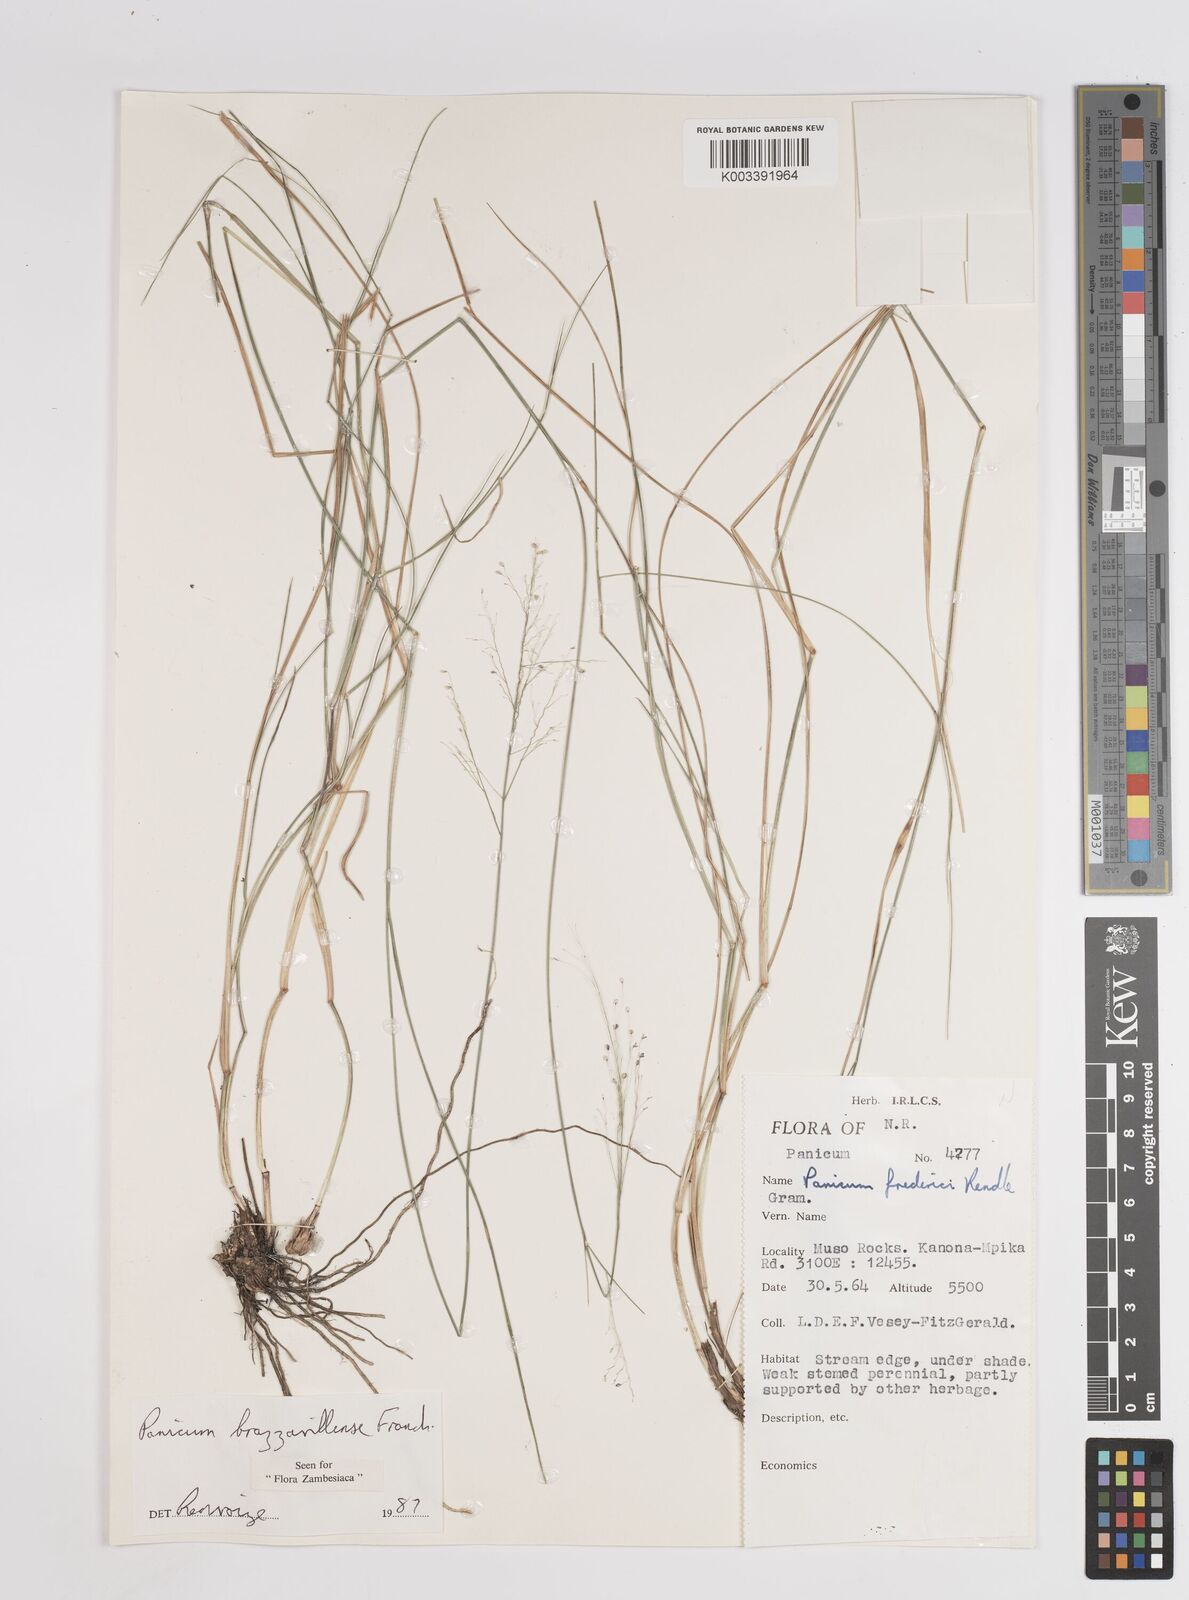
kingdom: Plantae
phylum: Tracheophyta
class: Liliopsida
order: Poales
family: Poaceae
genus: Trichanthecium
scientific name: Trichanthecium brazzavillense
